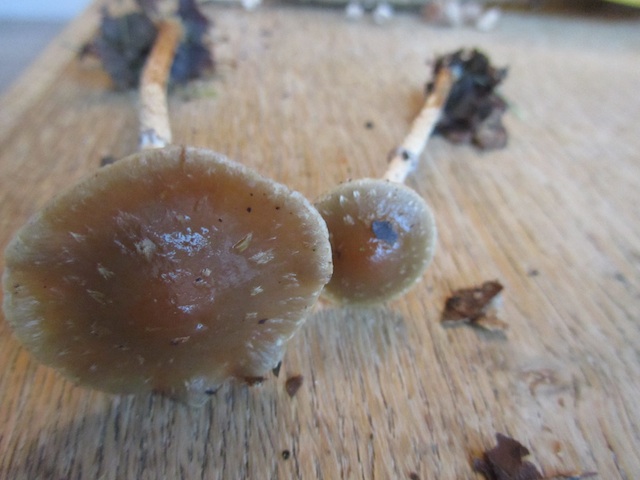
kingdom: Fungi
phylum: Basidiomycota
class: Agaricomycetes
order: Agaricales
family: Strophariaceae
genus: Leratiomyces
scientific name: Leratiomyces squamosus
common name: skællet bredblad
